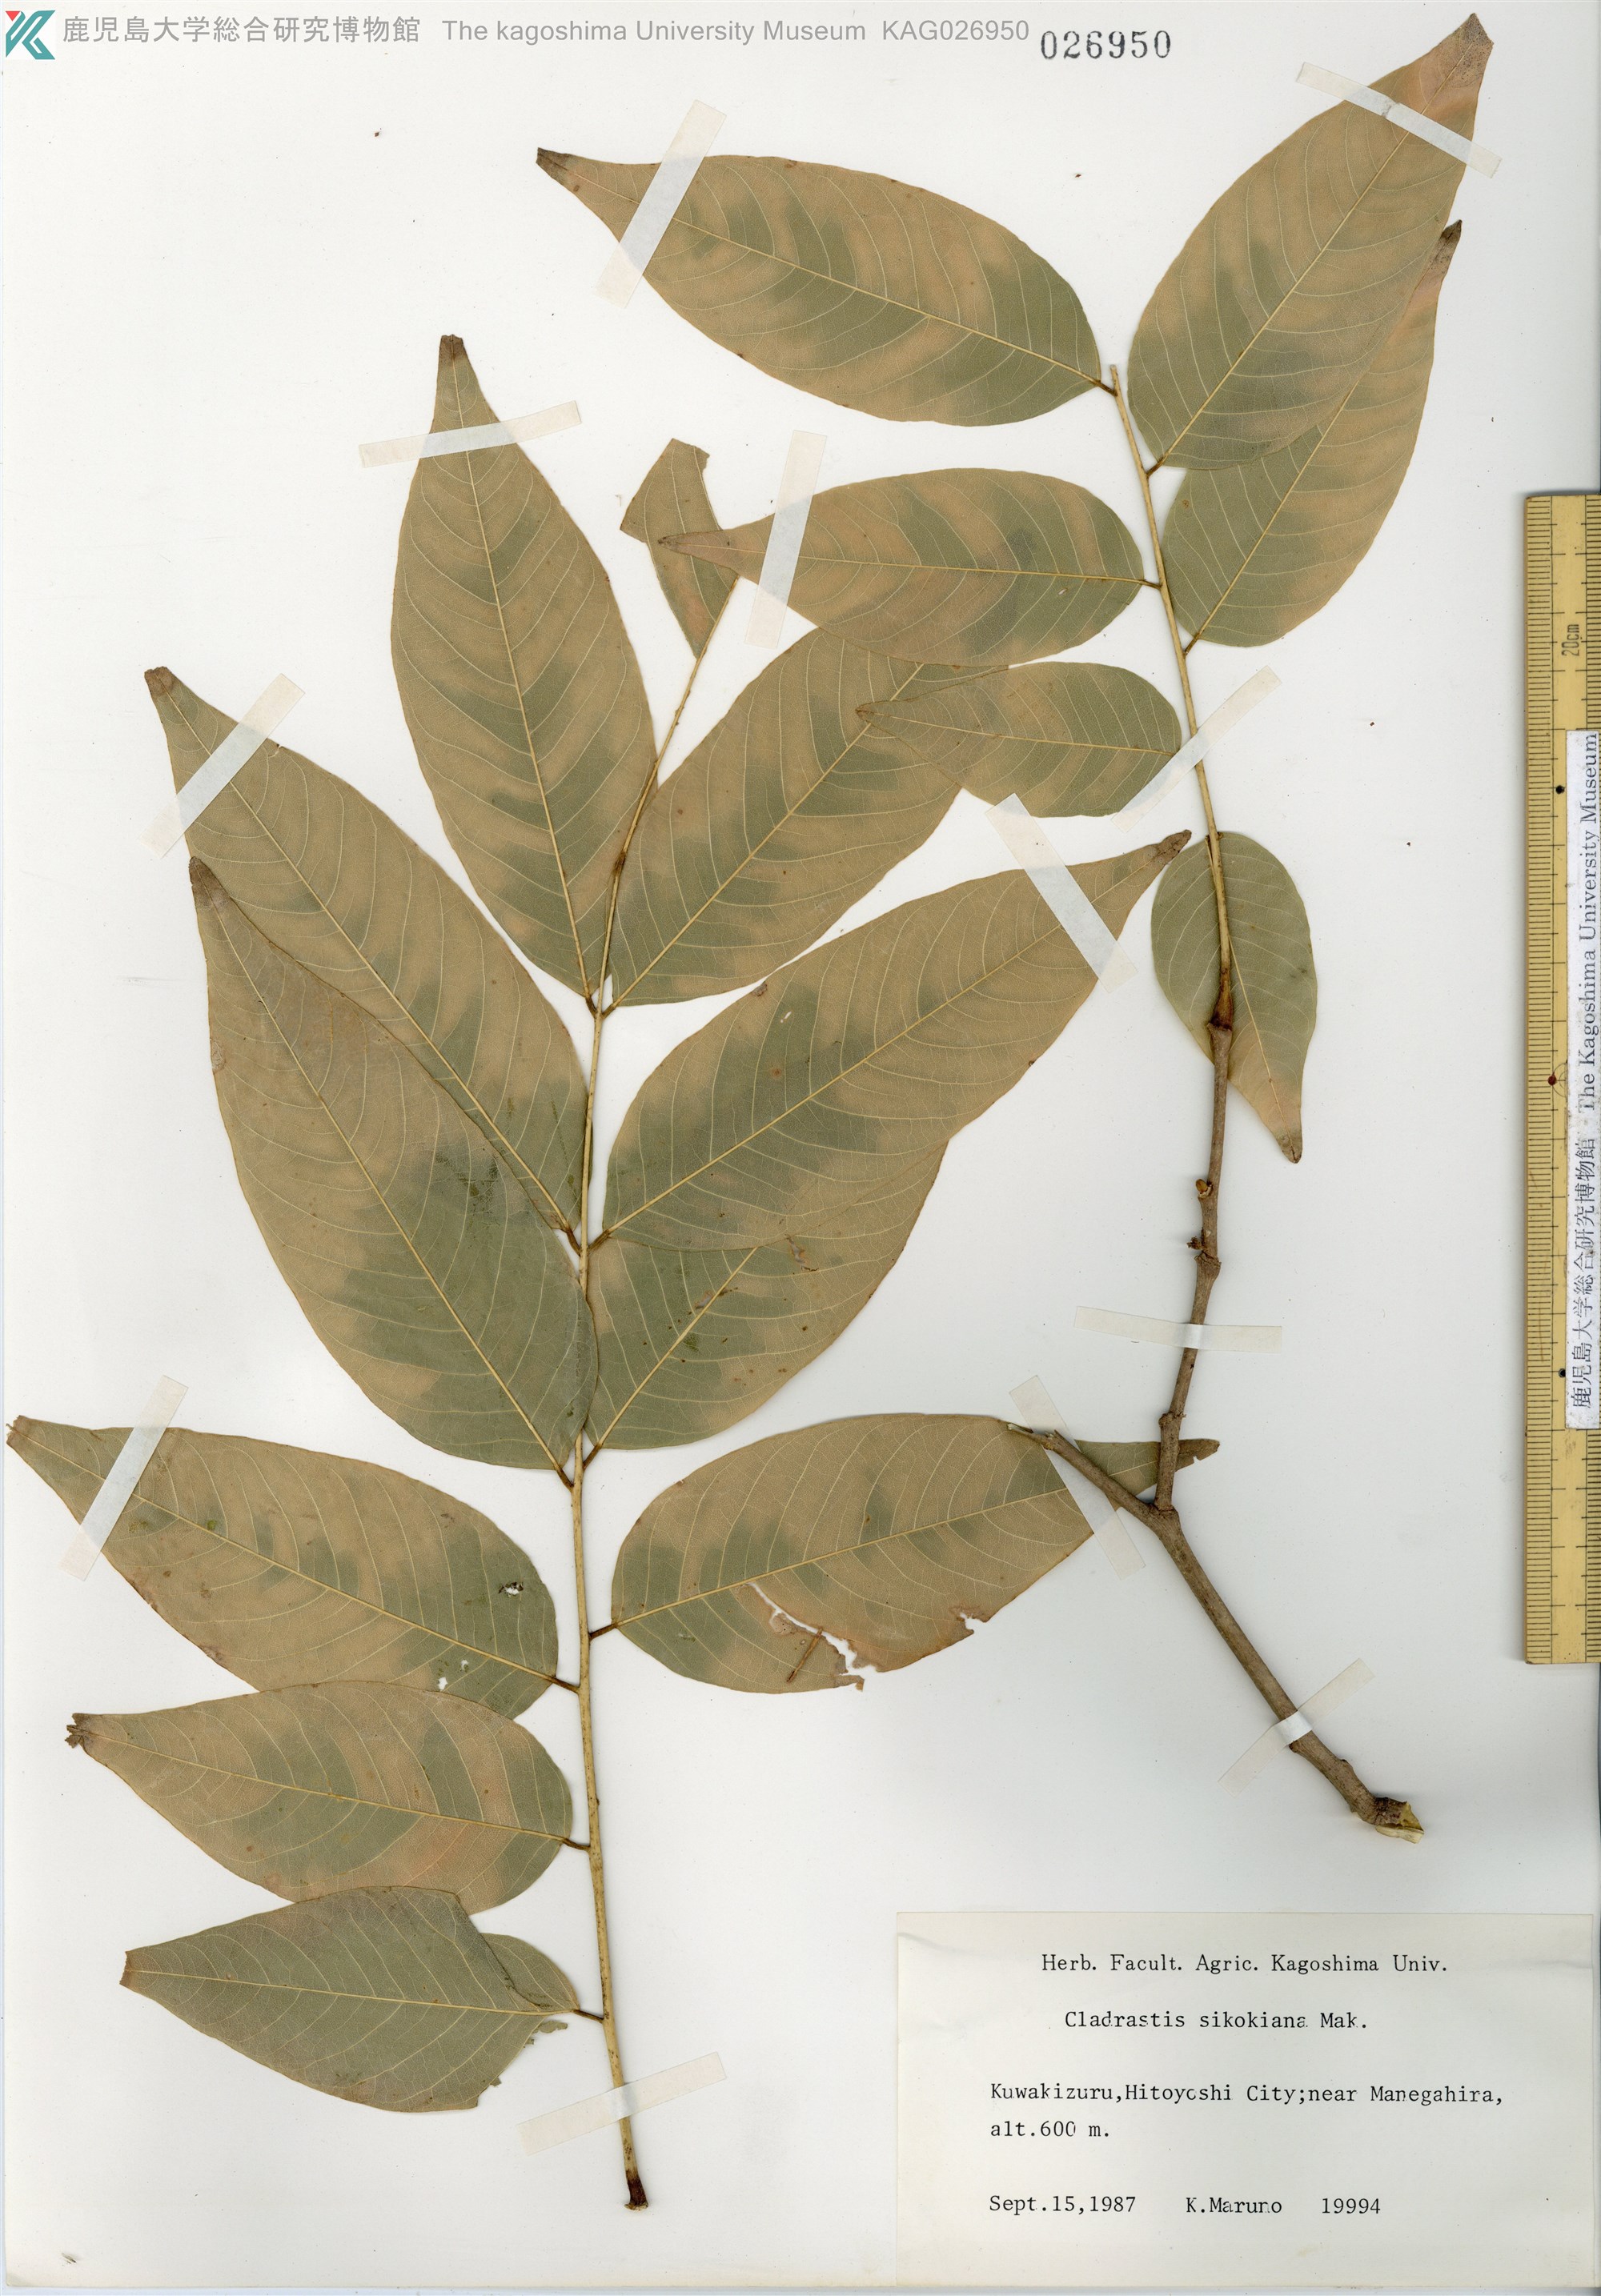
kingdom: Plantae
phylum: Tracheophyta
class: Magnoliopsida
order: Fabales
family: Fabaceae
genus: Cladrastis
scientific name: Cladrastis shikokiana
